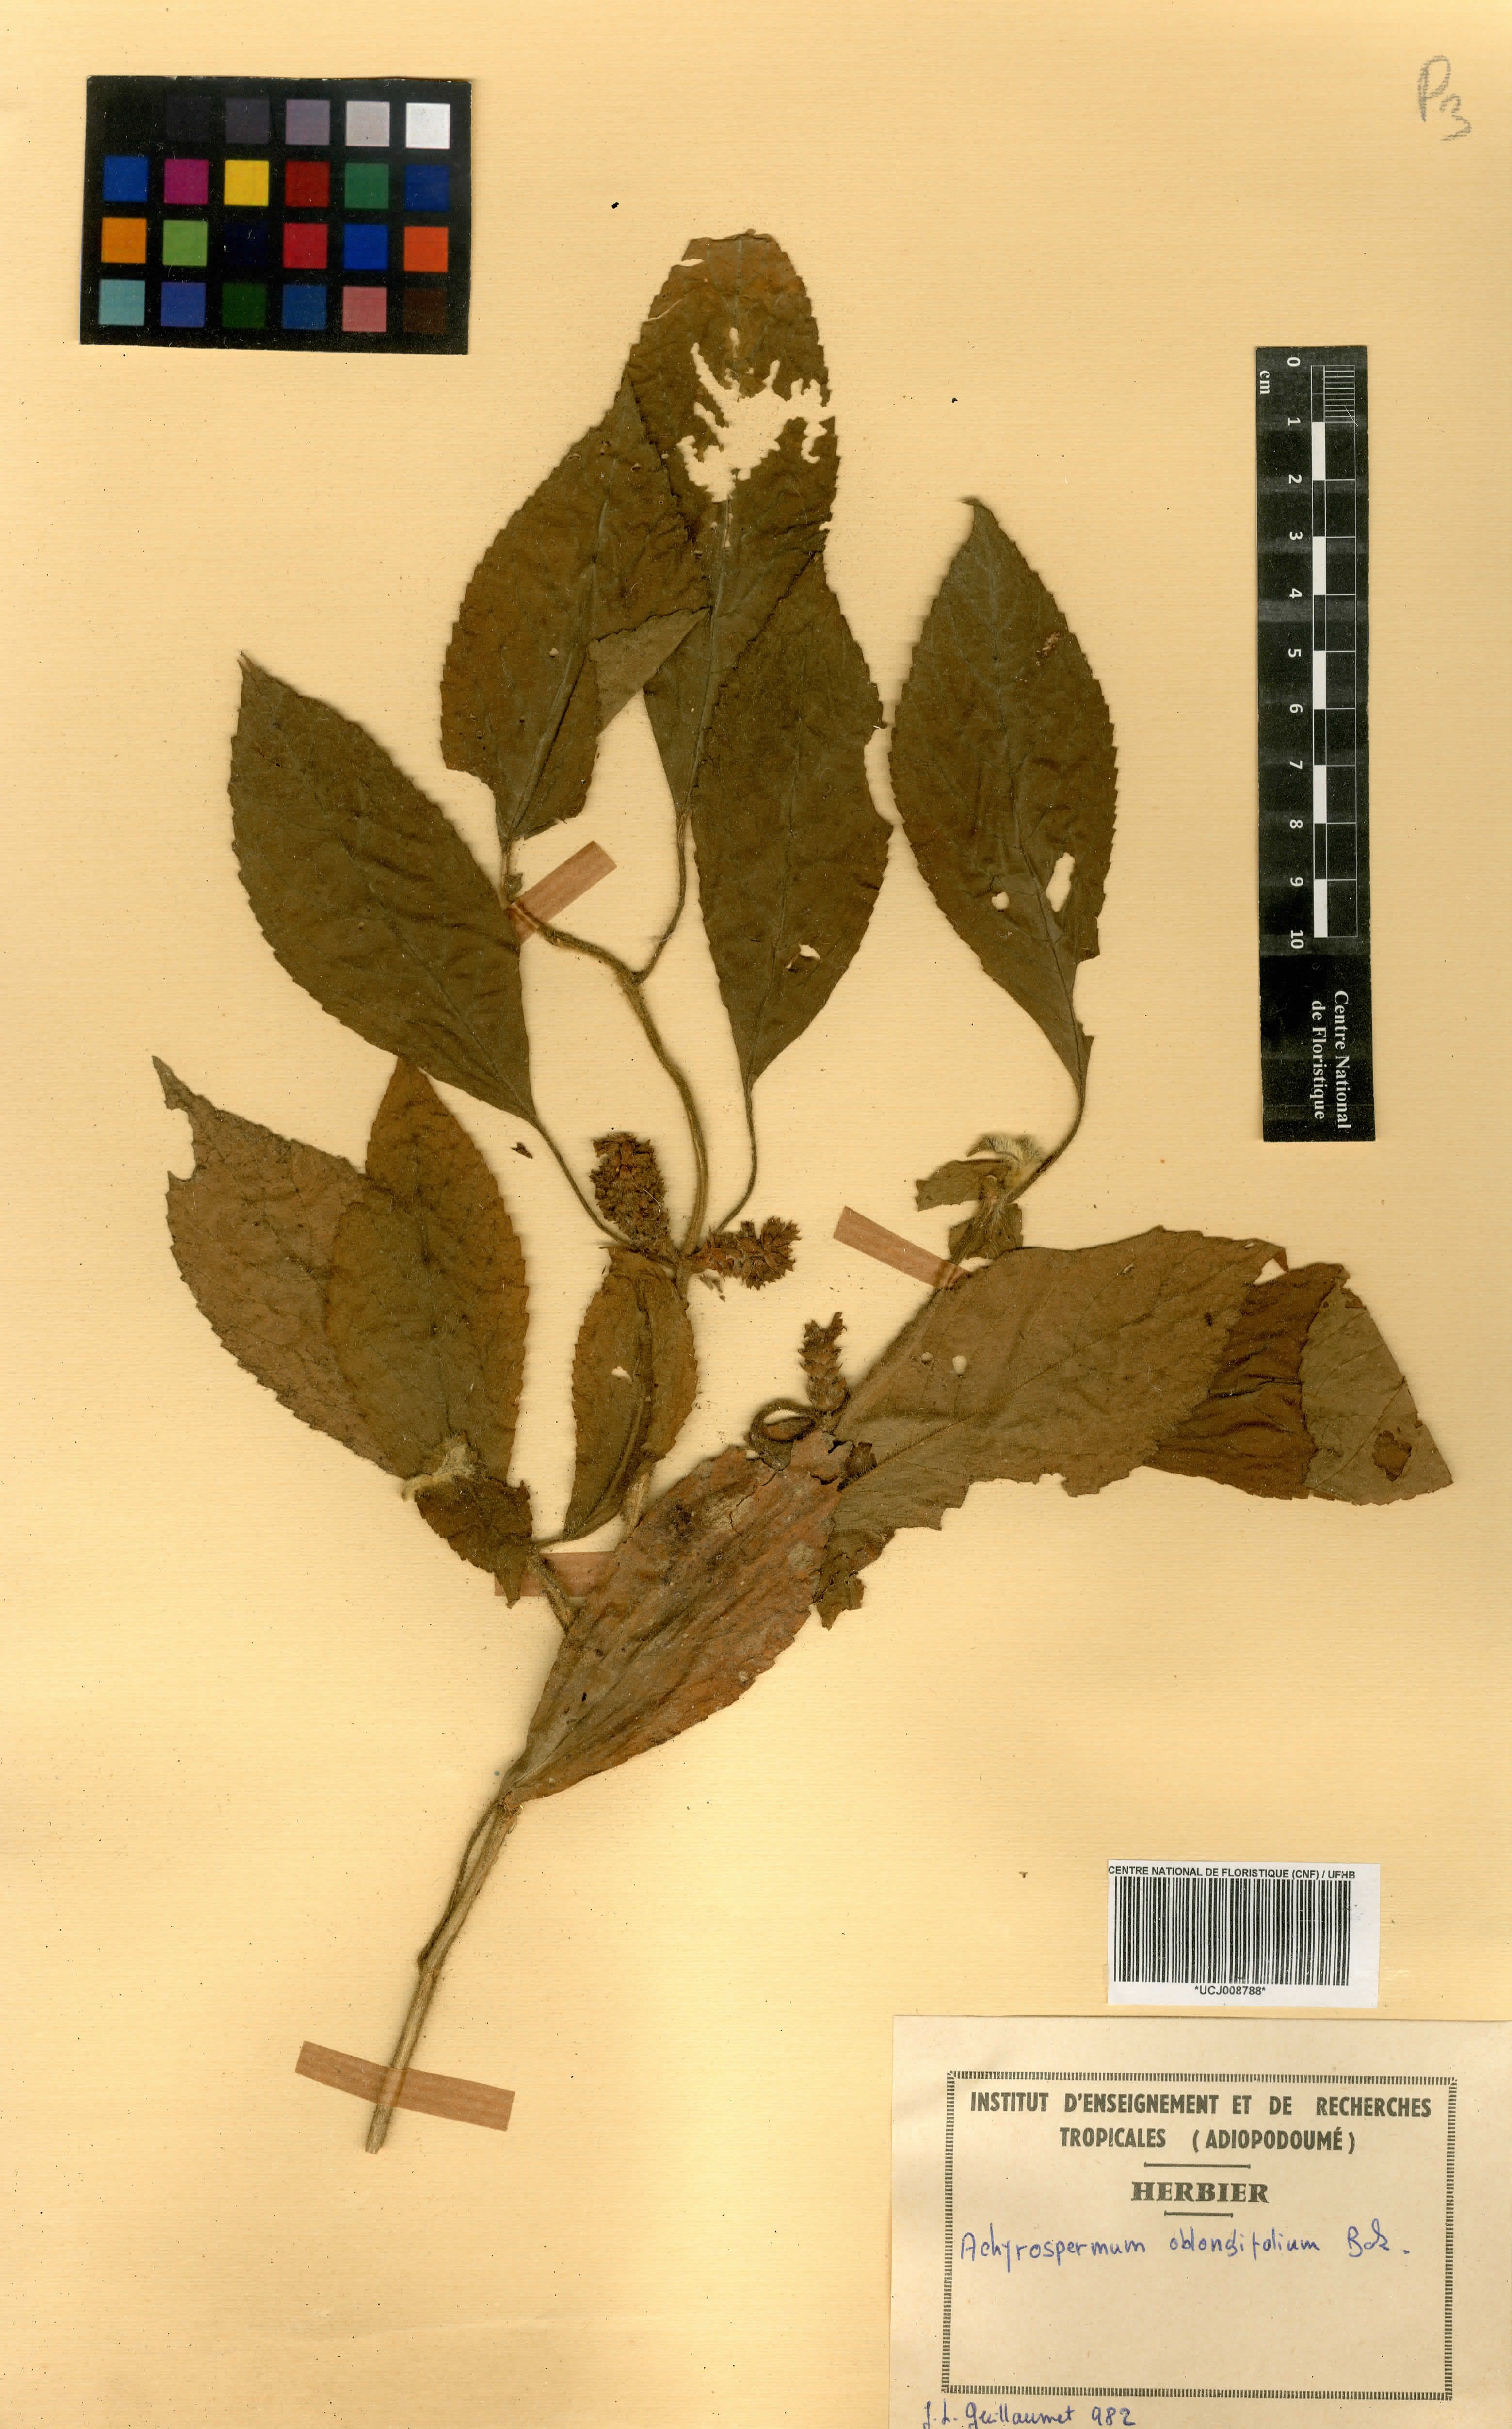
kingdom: Plantae
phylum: Tracheophyta
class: Magnoliopsida
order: Lamiales
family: Lamiaceae
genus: Achyrospermum
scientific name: Achyrospermum oblongifolium
